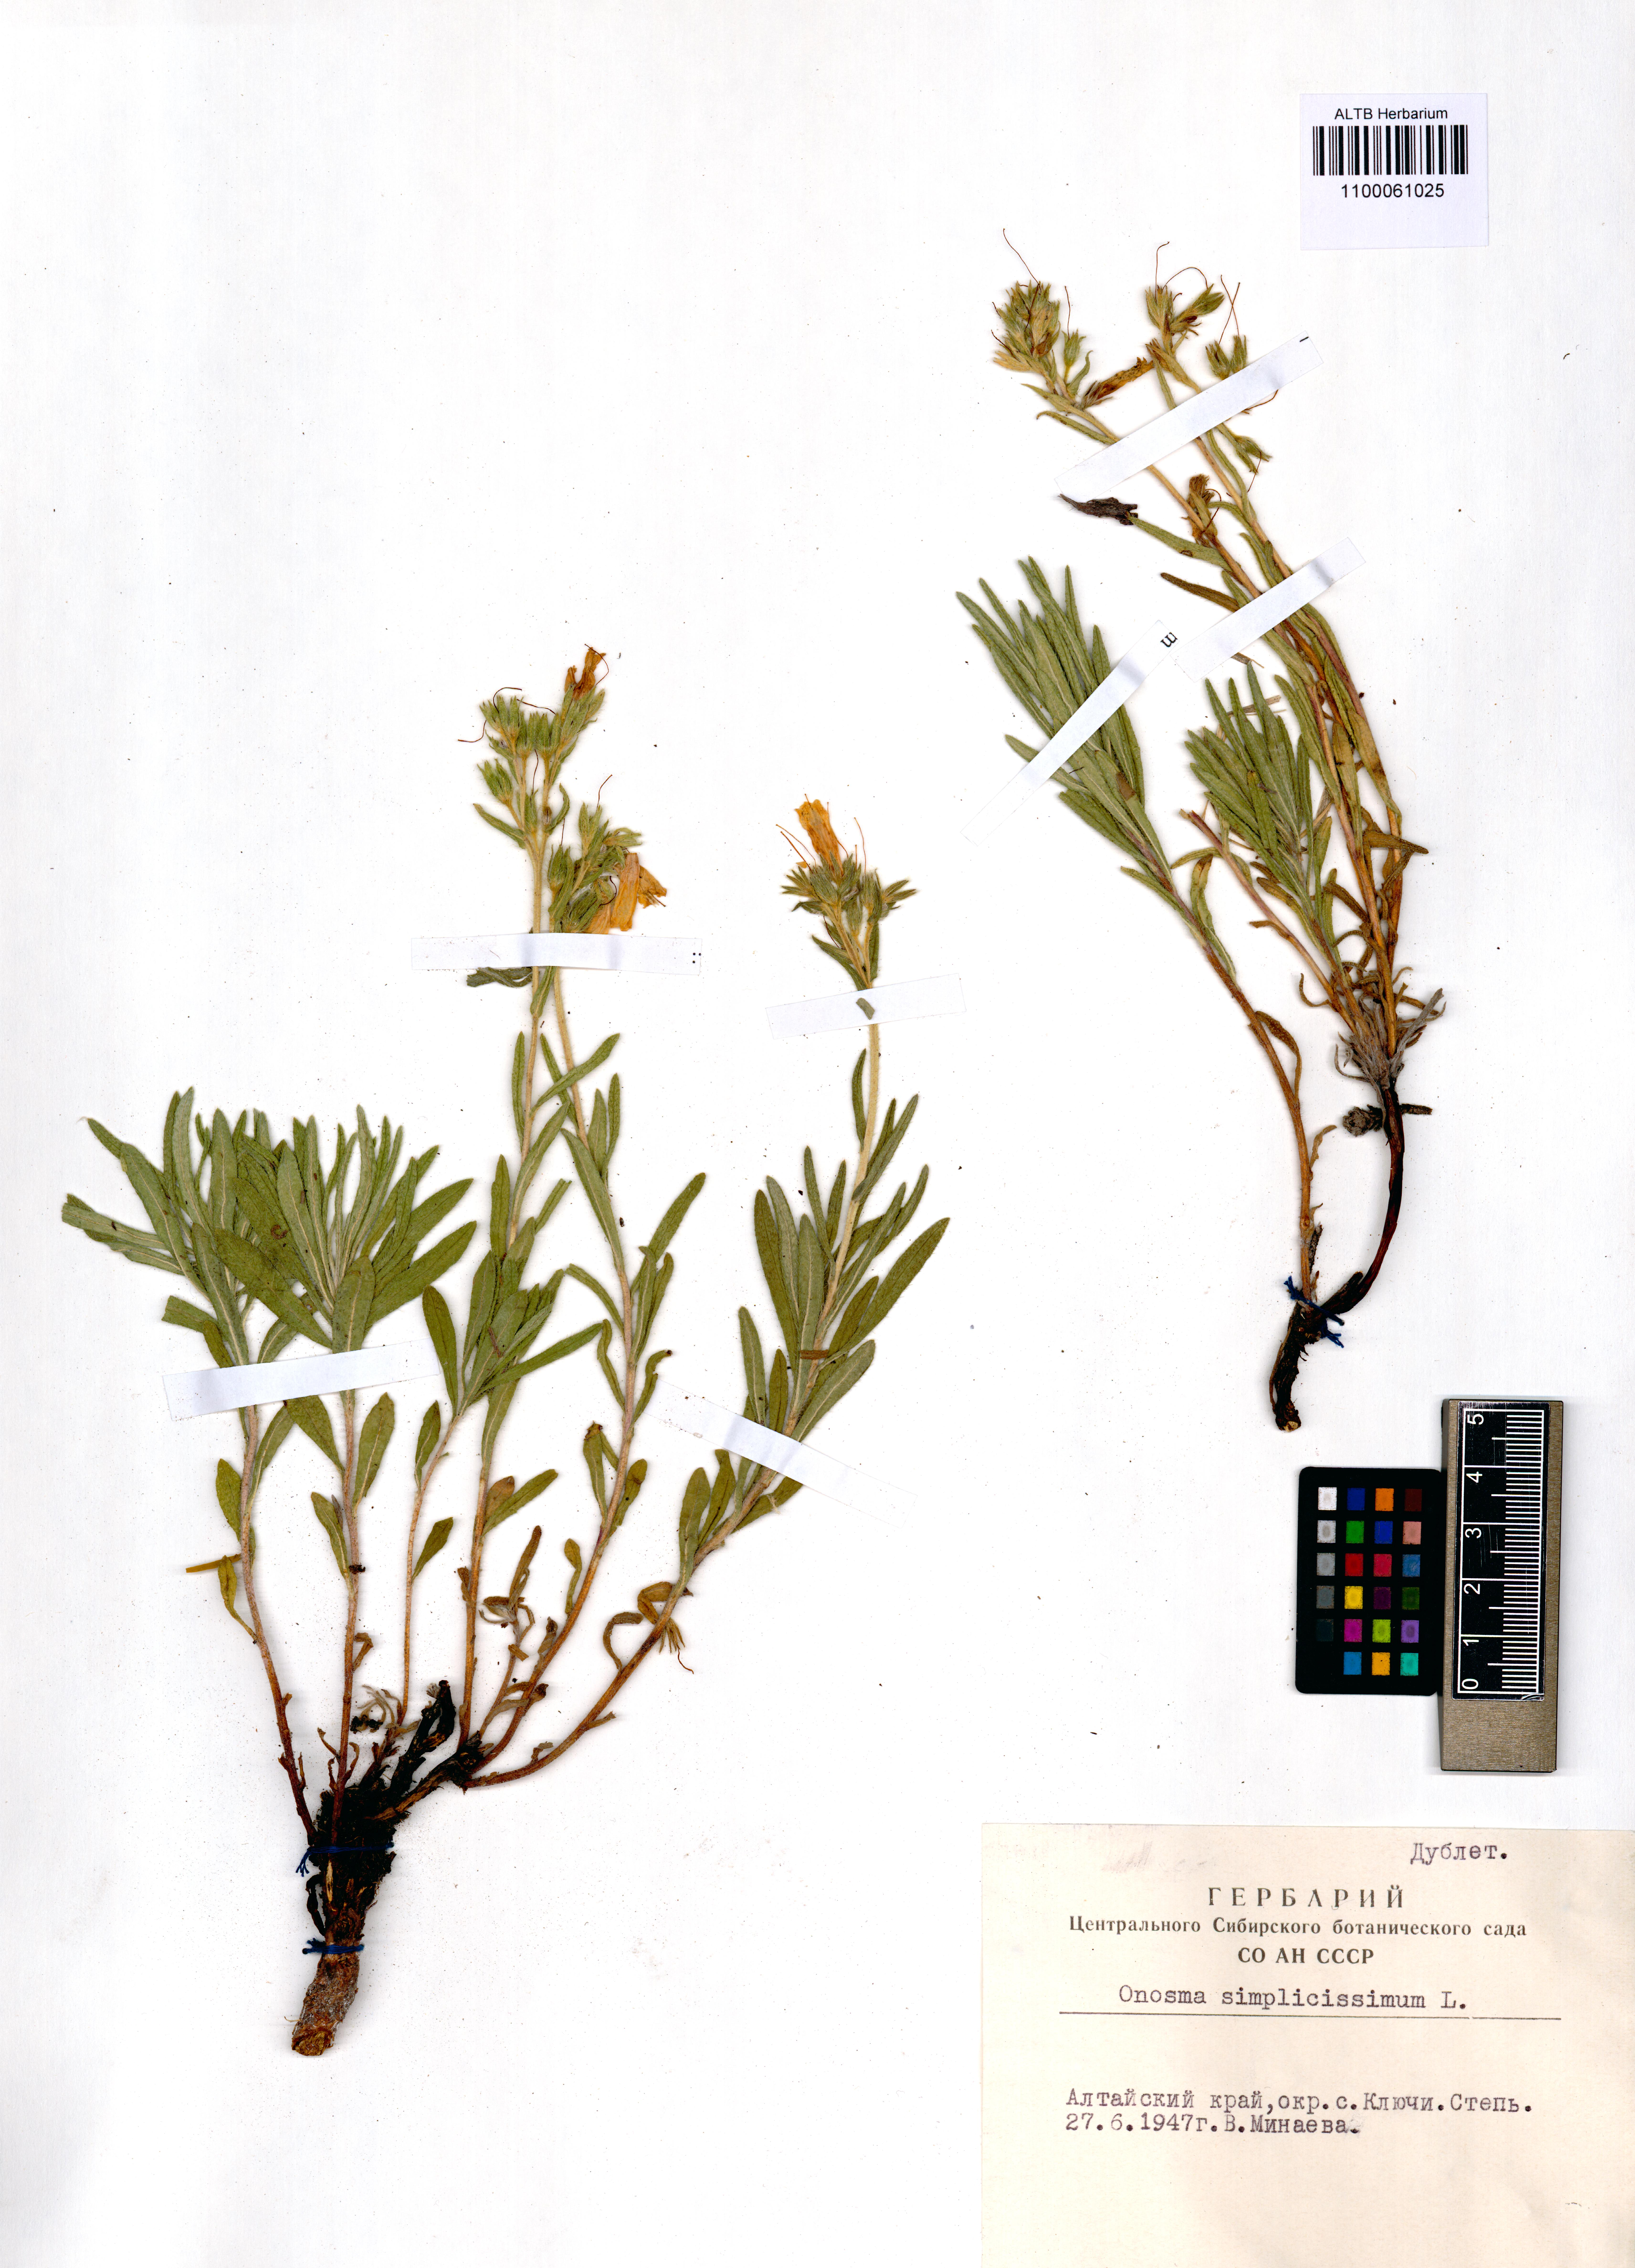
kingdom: Plantae
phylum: Tracheophyta
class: Magnoliopsida
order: Boraginales
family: Boraginaceae
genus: Onosma
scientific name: Onosma simplicissima
